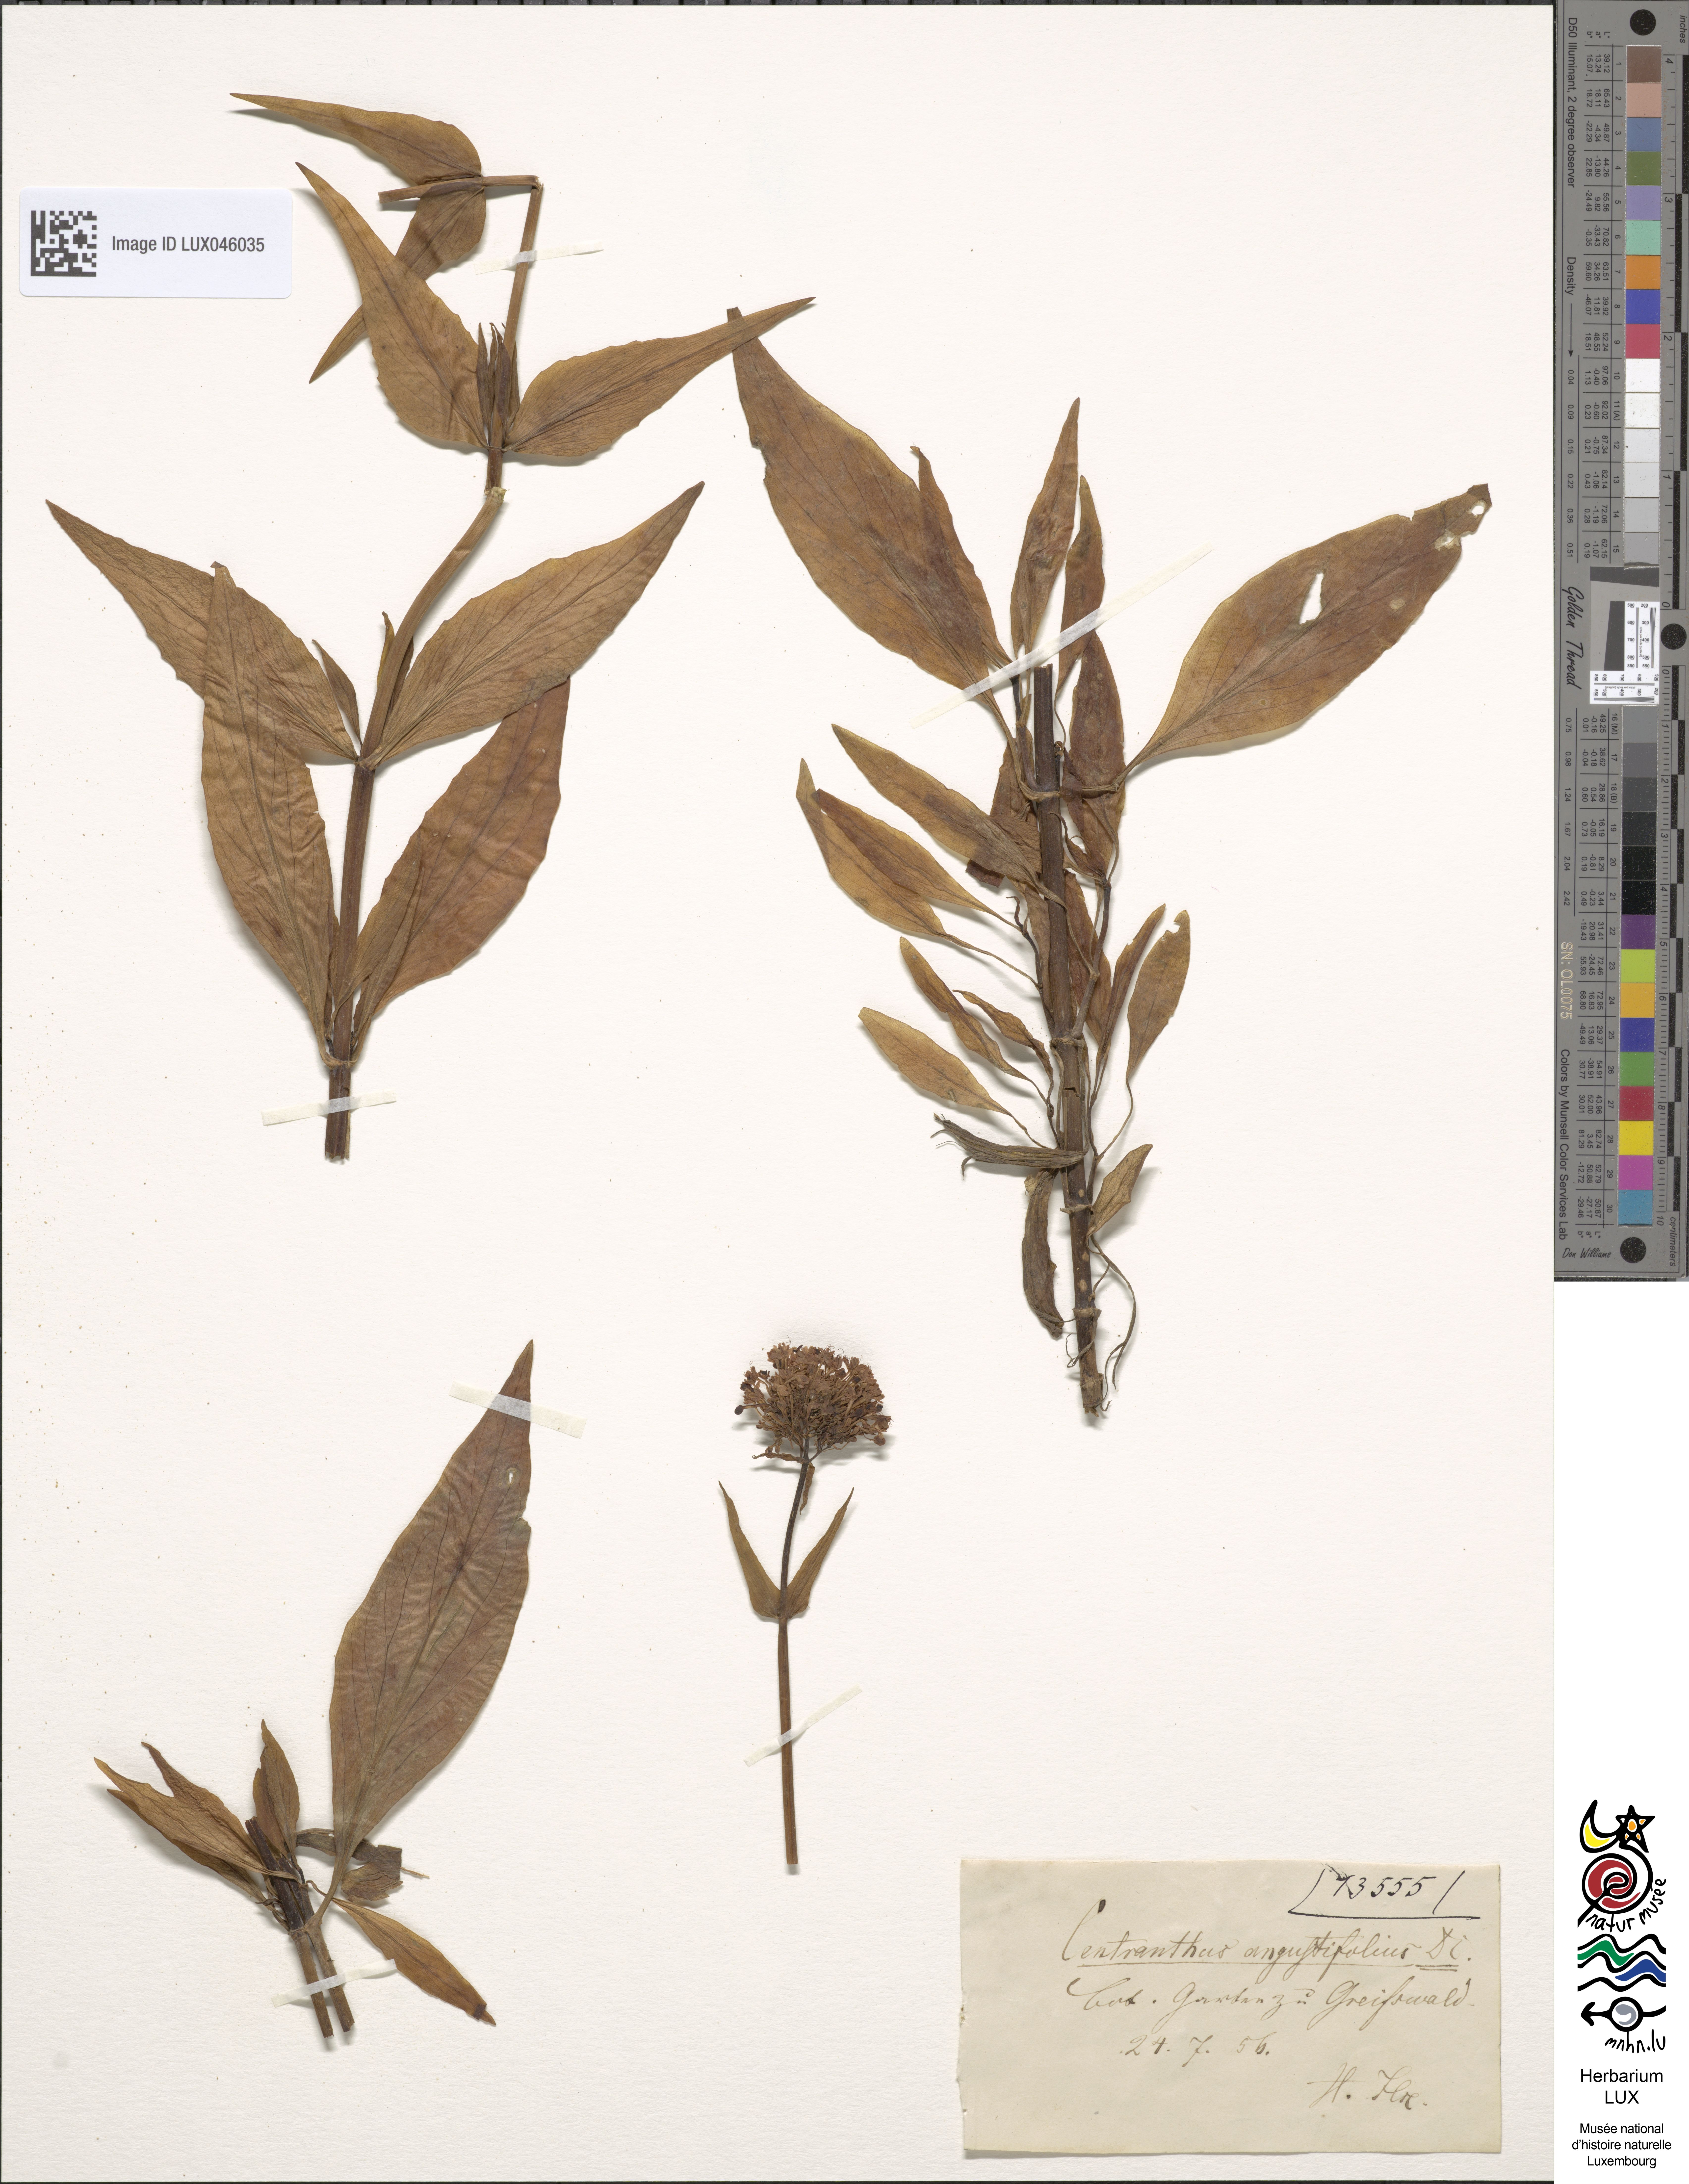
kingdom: Plantae
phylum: Tracheophyta
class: Magnoliopsida
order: Dipsacales
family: Caprifoliaceae
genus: Centranthus
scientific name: Centranthus angustifolius
